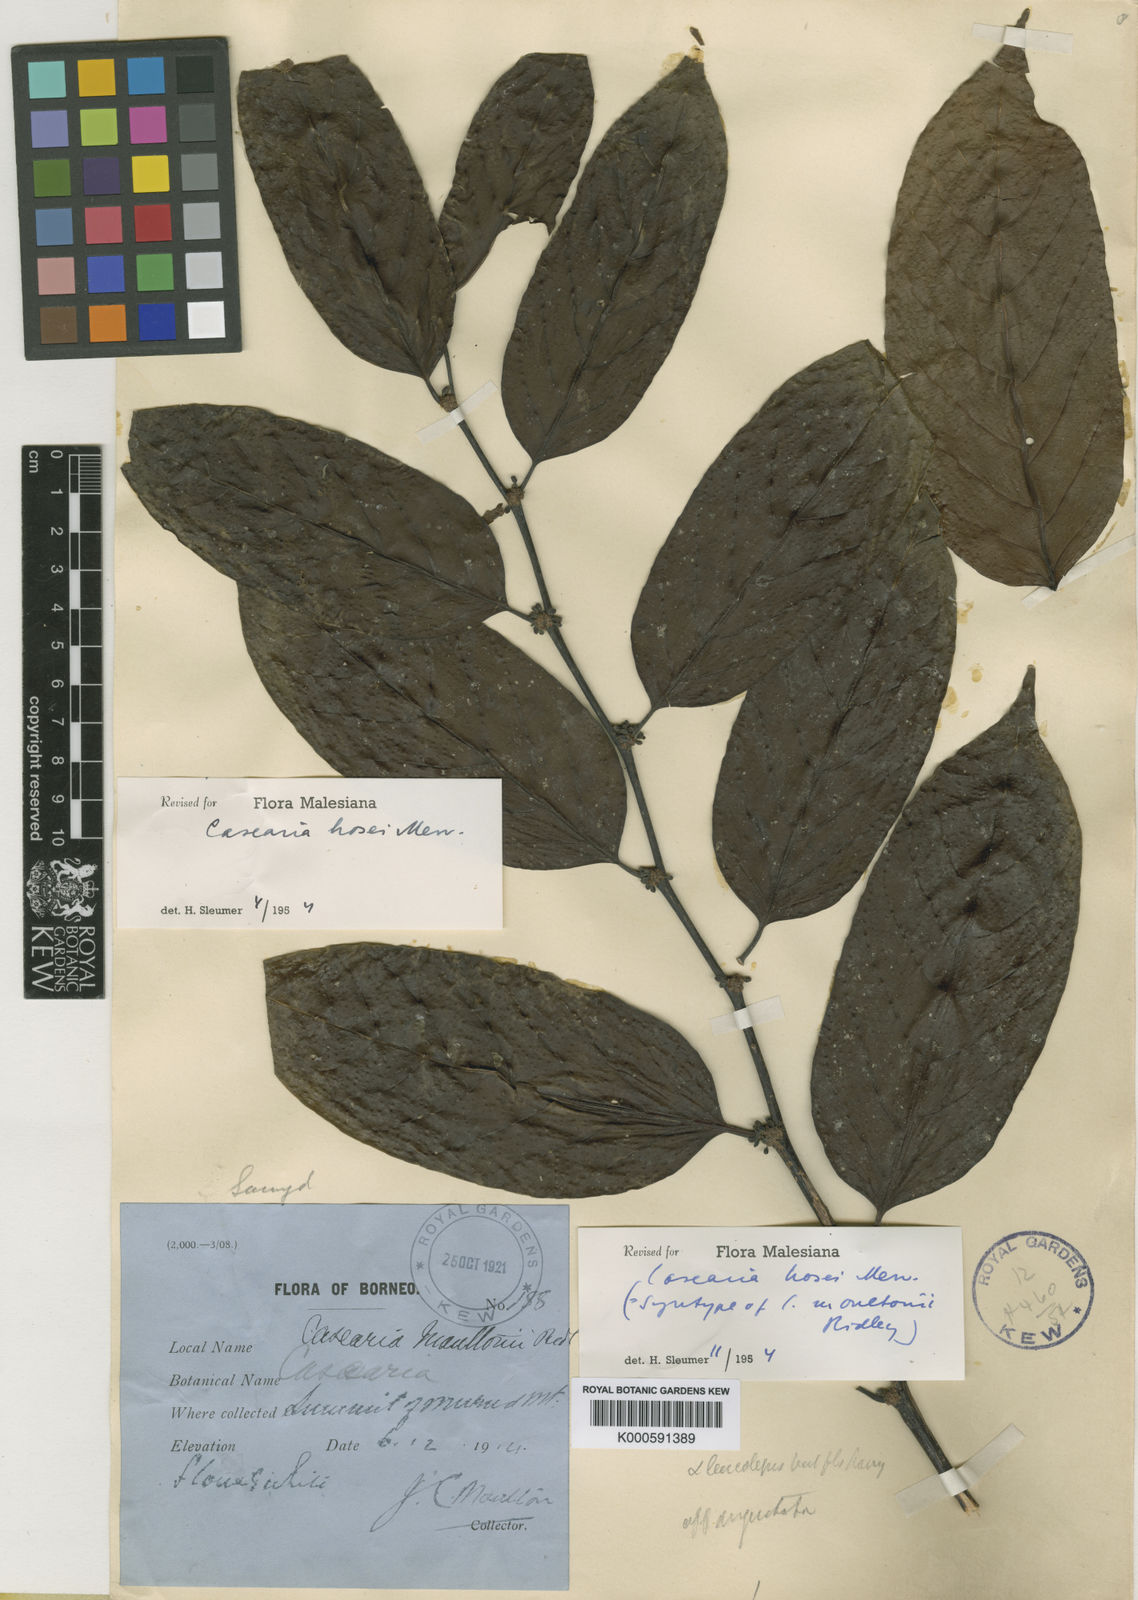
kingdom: Plantae
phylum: Tracheophyta
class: Magnoliopsida
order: Malpighiales
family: Salicaceae
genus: Casearia
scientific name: Casearia hosei
